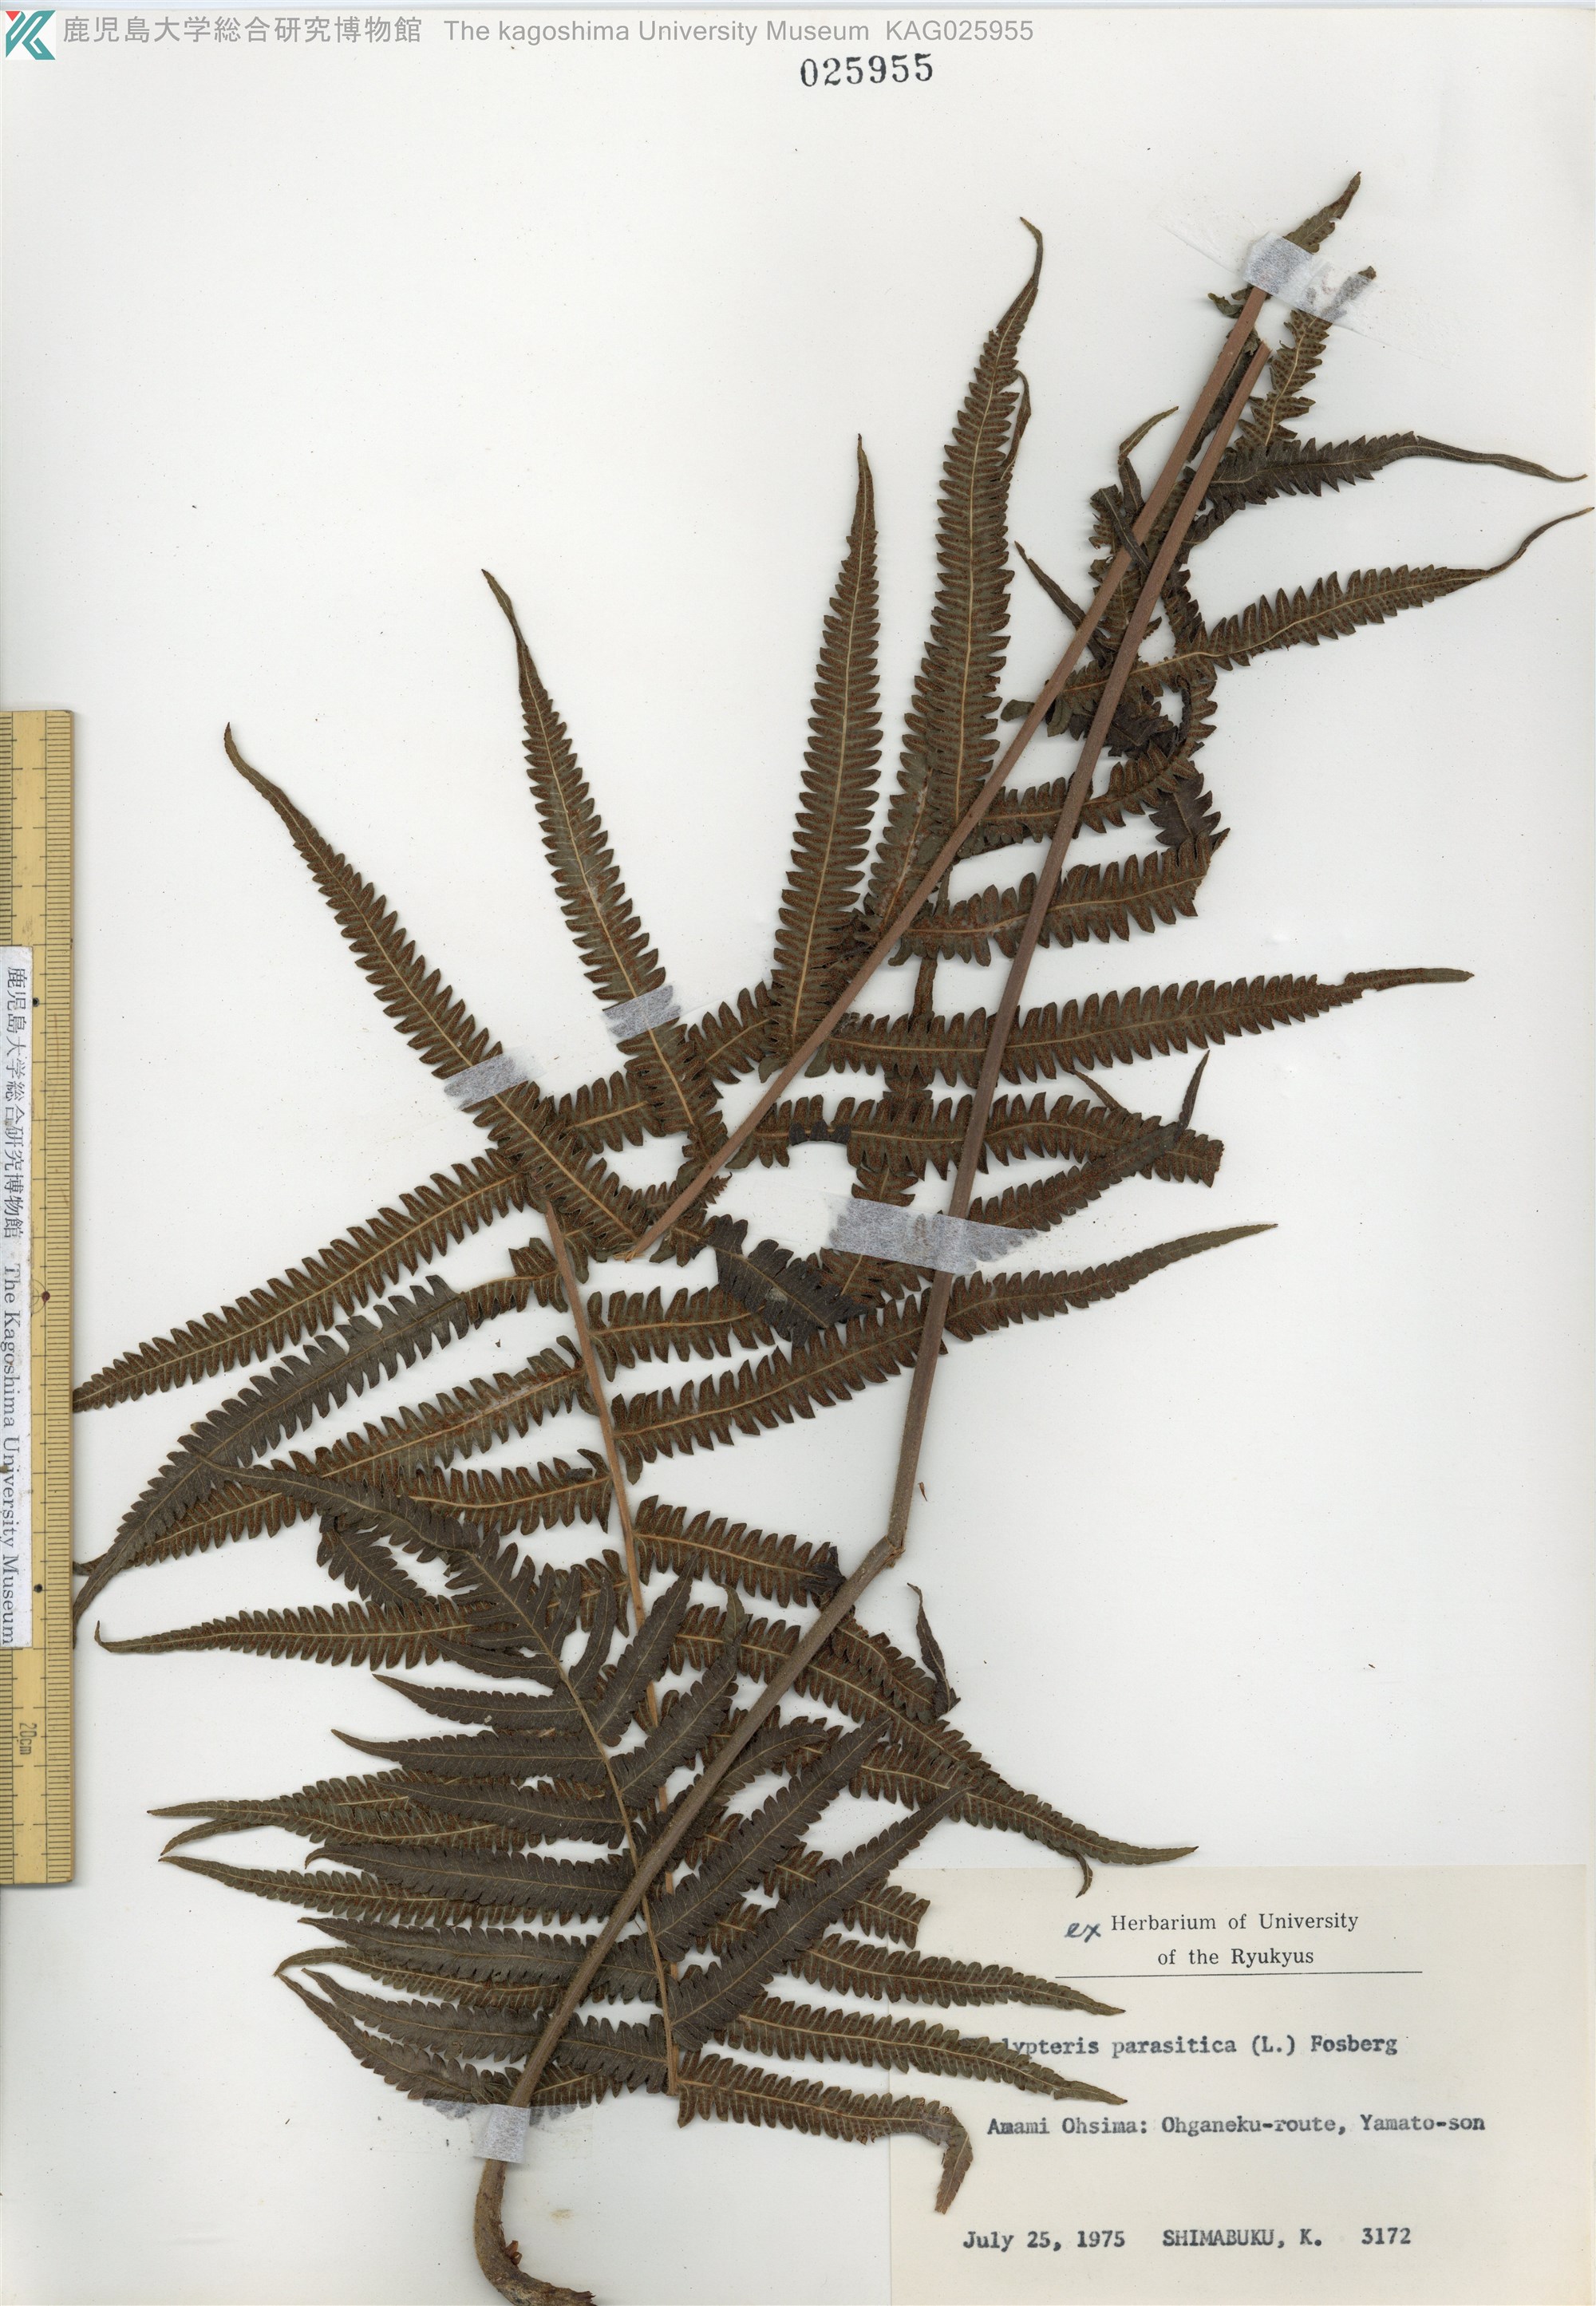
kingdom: Plantae
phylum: Tracheophyta
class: Polypodiopsida
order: Polypodiales
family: Thelypteridaceae
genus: Christella
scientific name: Christella parasitica
